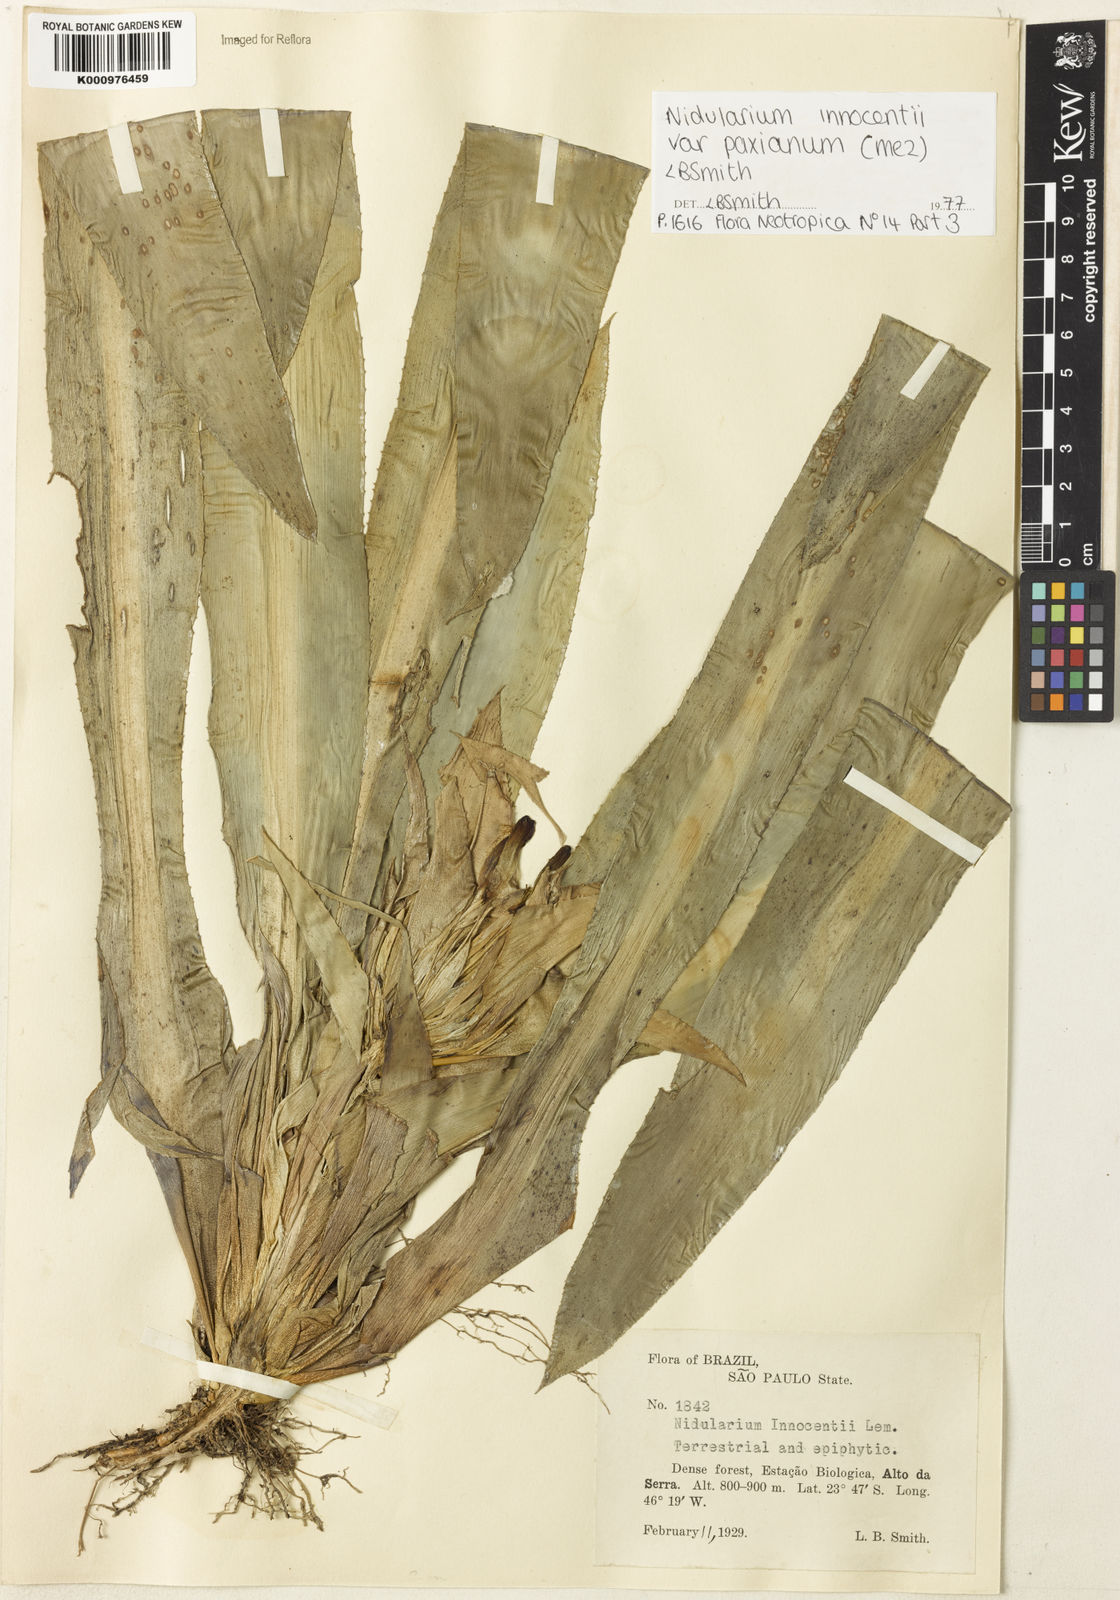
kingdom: Plantae
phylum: Tracheophyta
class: Liliopsida
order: Poales
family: Bromeliaceae
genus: Nidularium
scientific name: Nidularium innocentii
